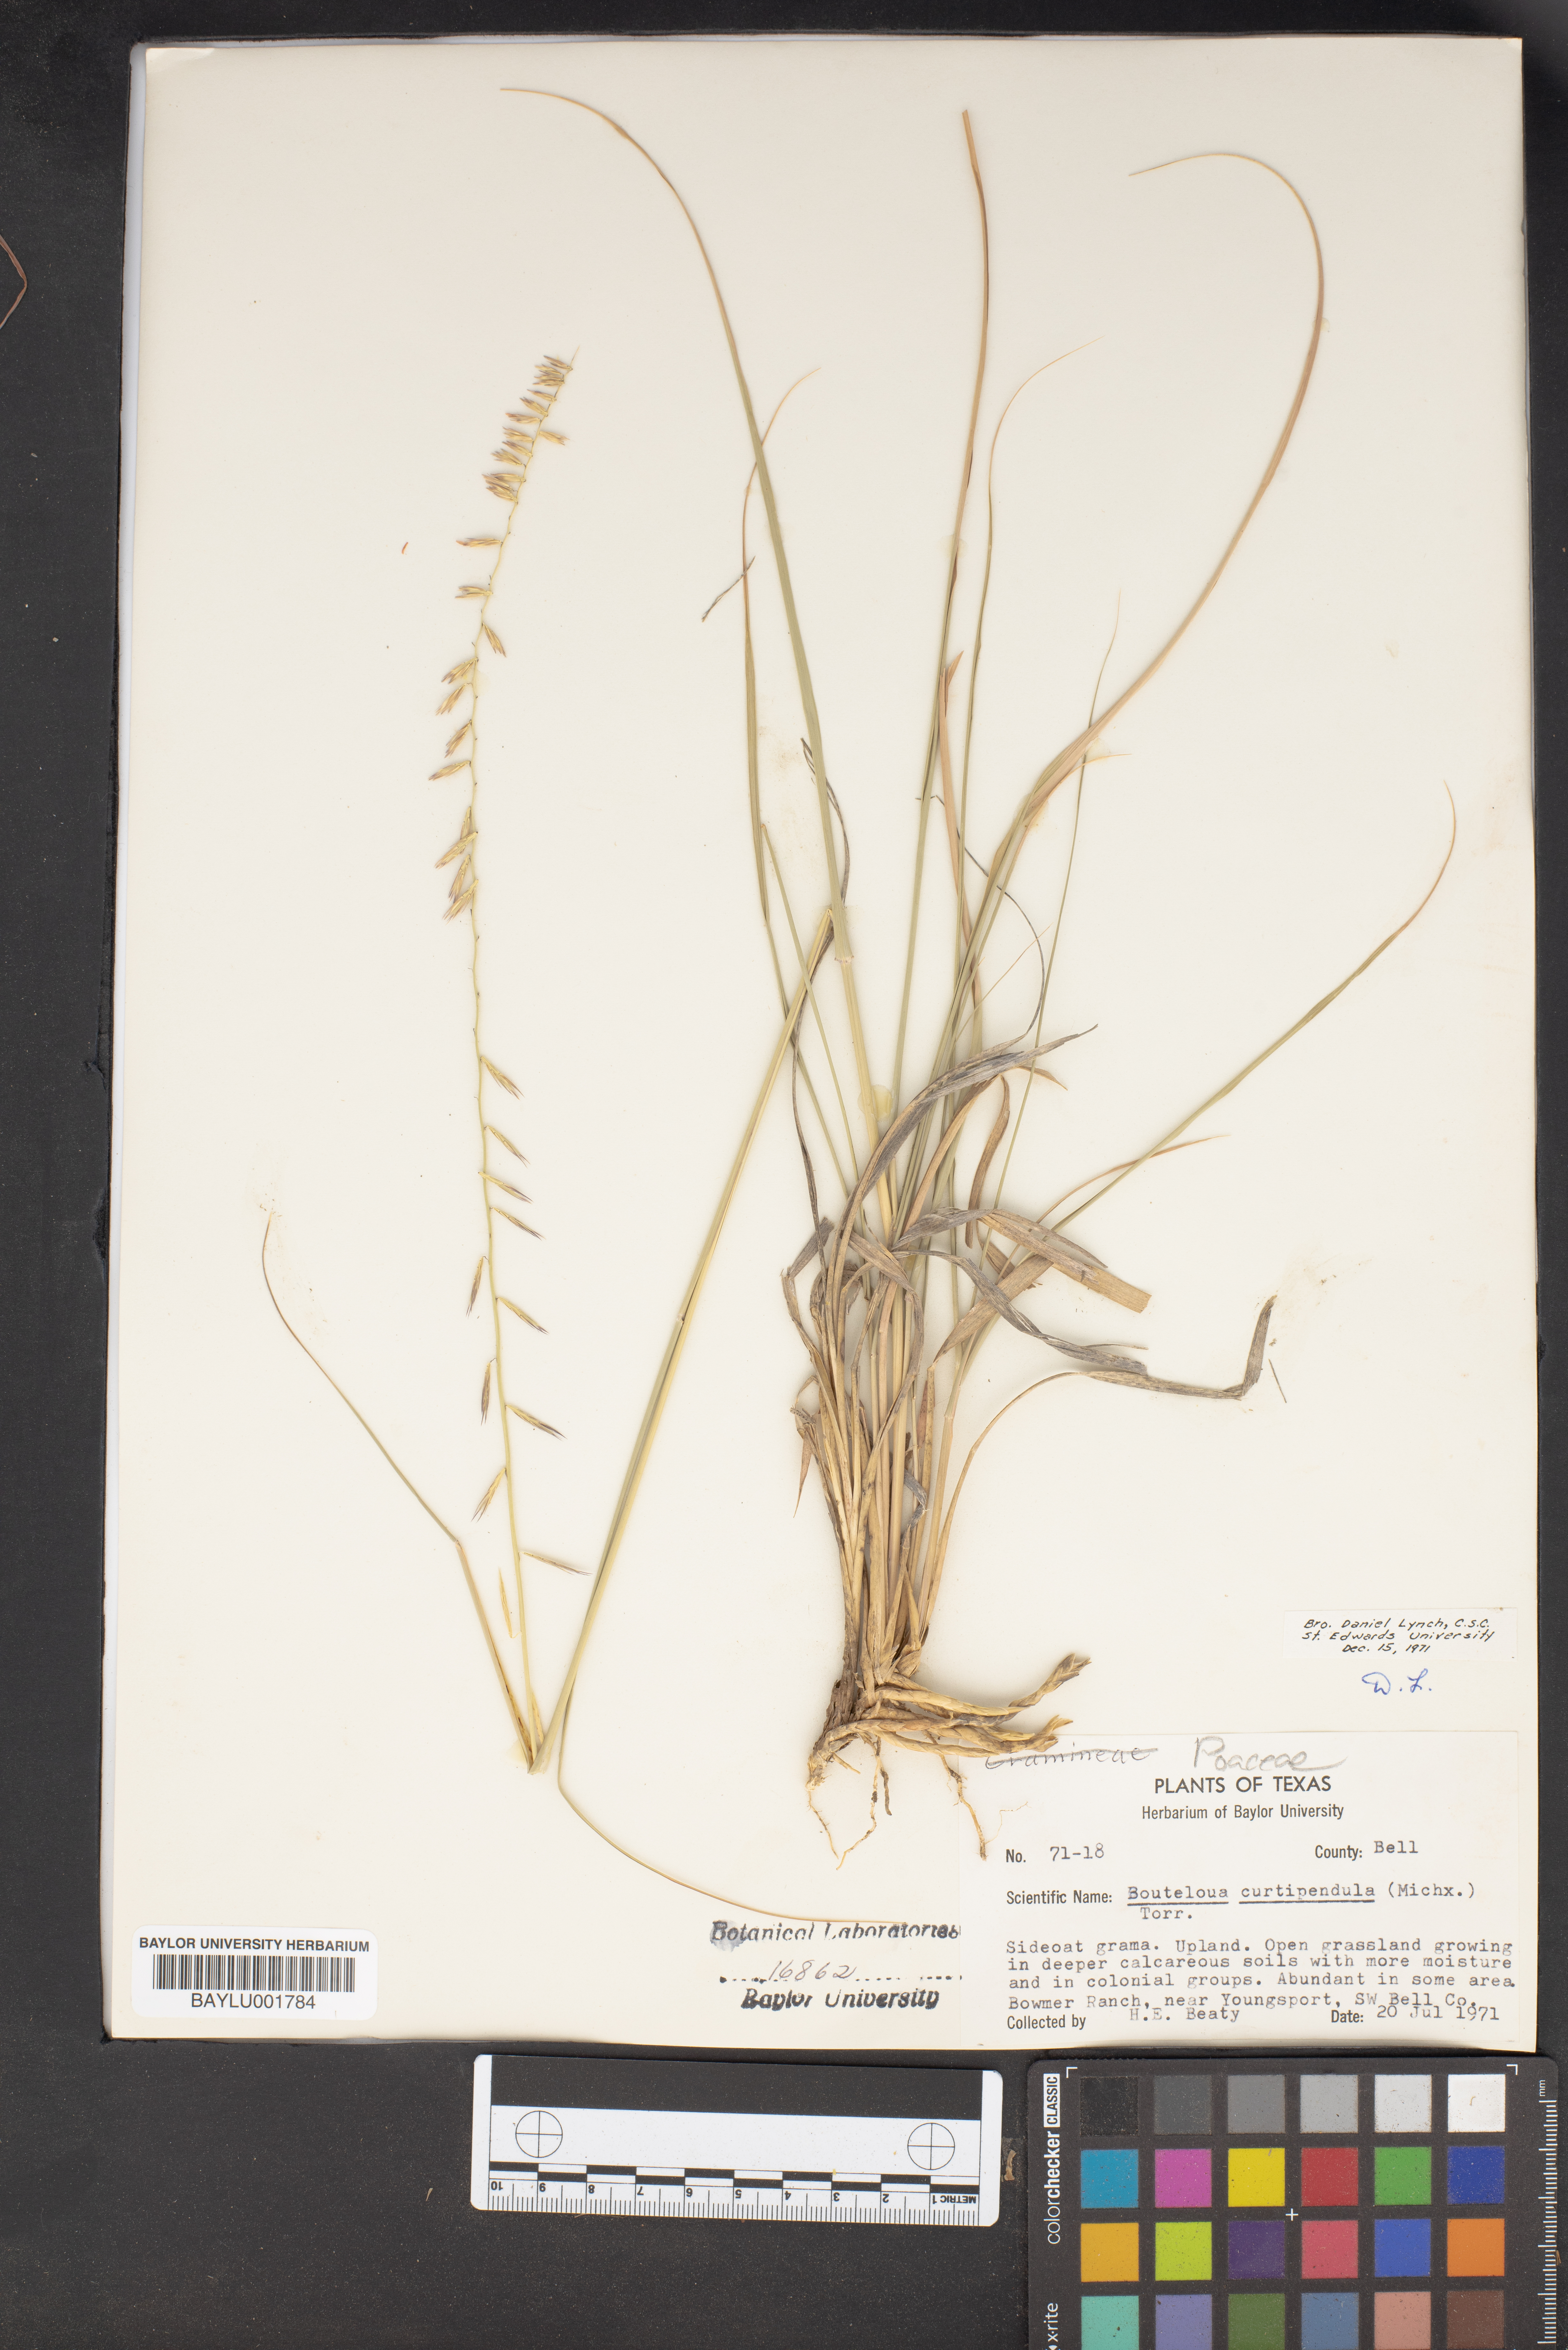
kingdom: Plantae
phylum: Tracheophyta
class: Liliopsida
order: Poales
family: Poaceae
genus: Bouteloua
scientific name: Bouteloua curtipendula
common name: Side-oats grama
